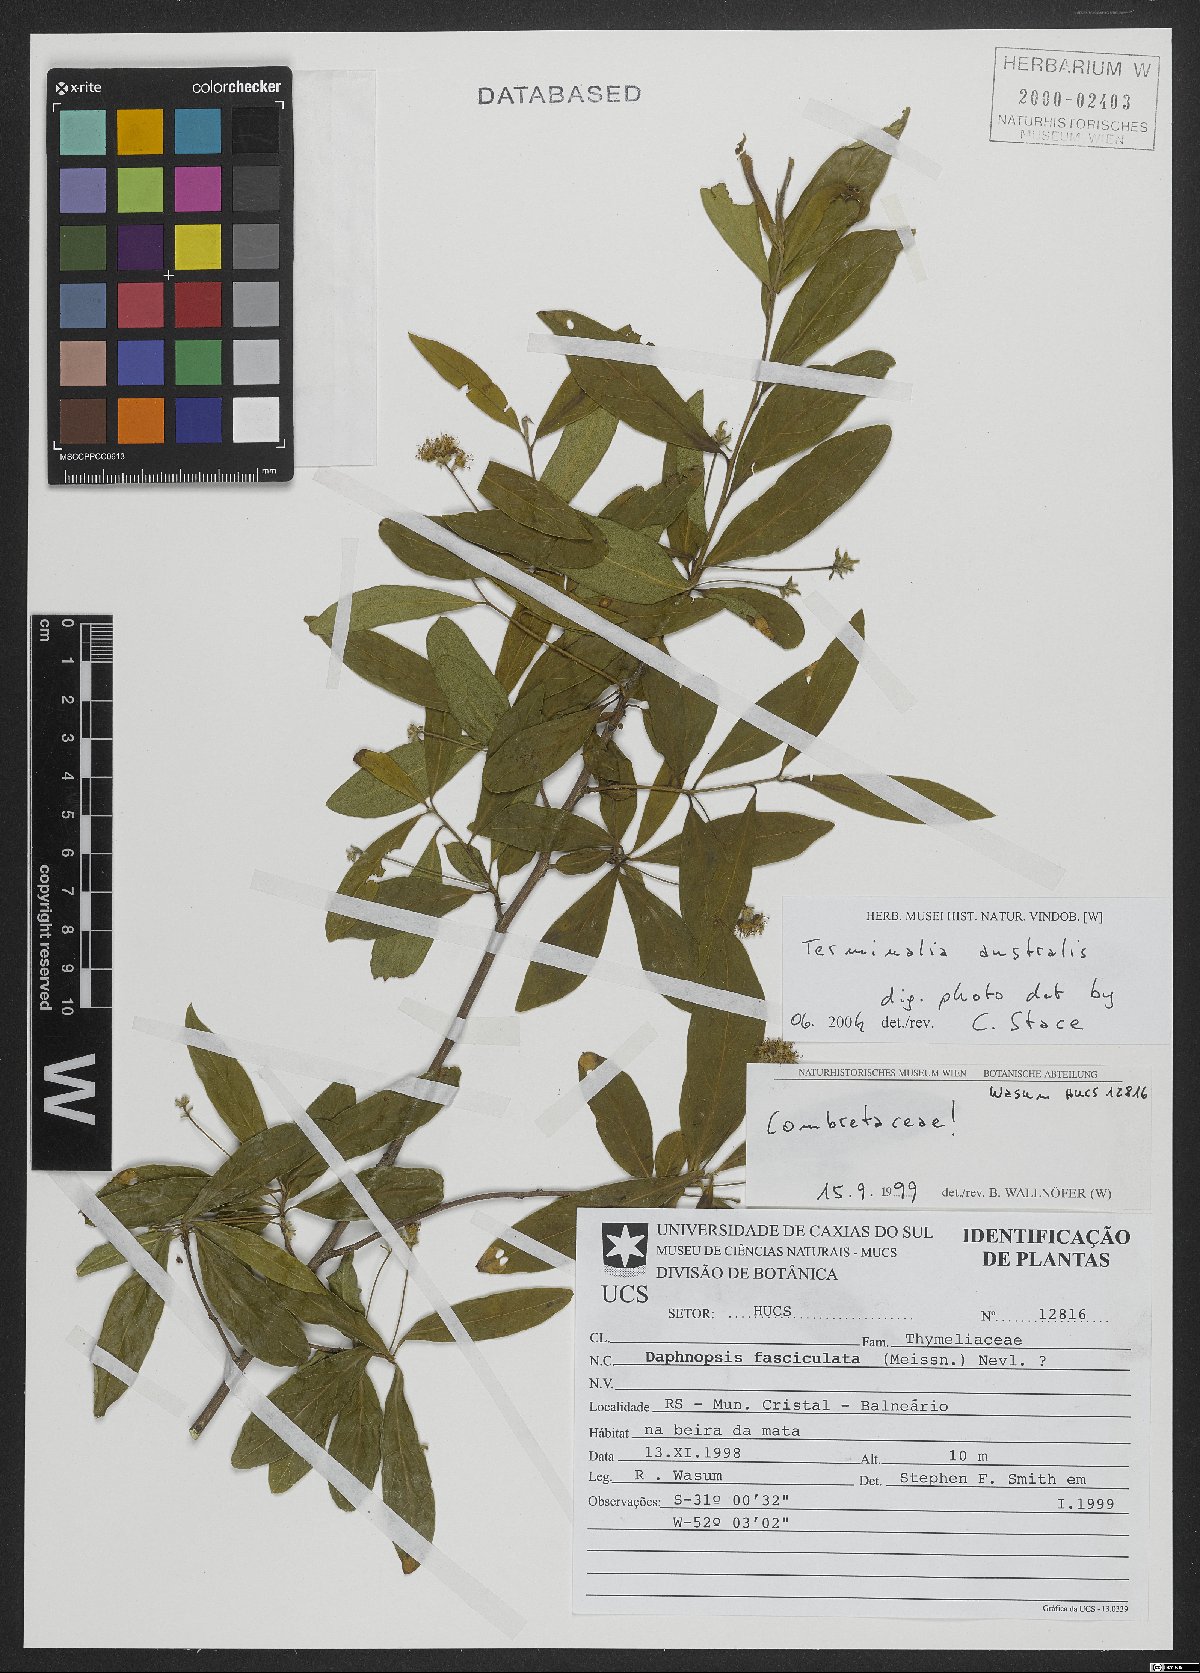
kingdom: Plantae
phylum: Tracheophyta
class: Magnoliopsida
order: Myrtales
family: Combretaceae
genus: Terminalia
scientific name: Terminalia australis
